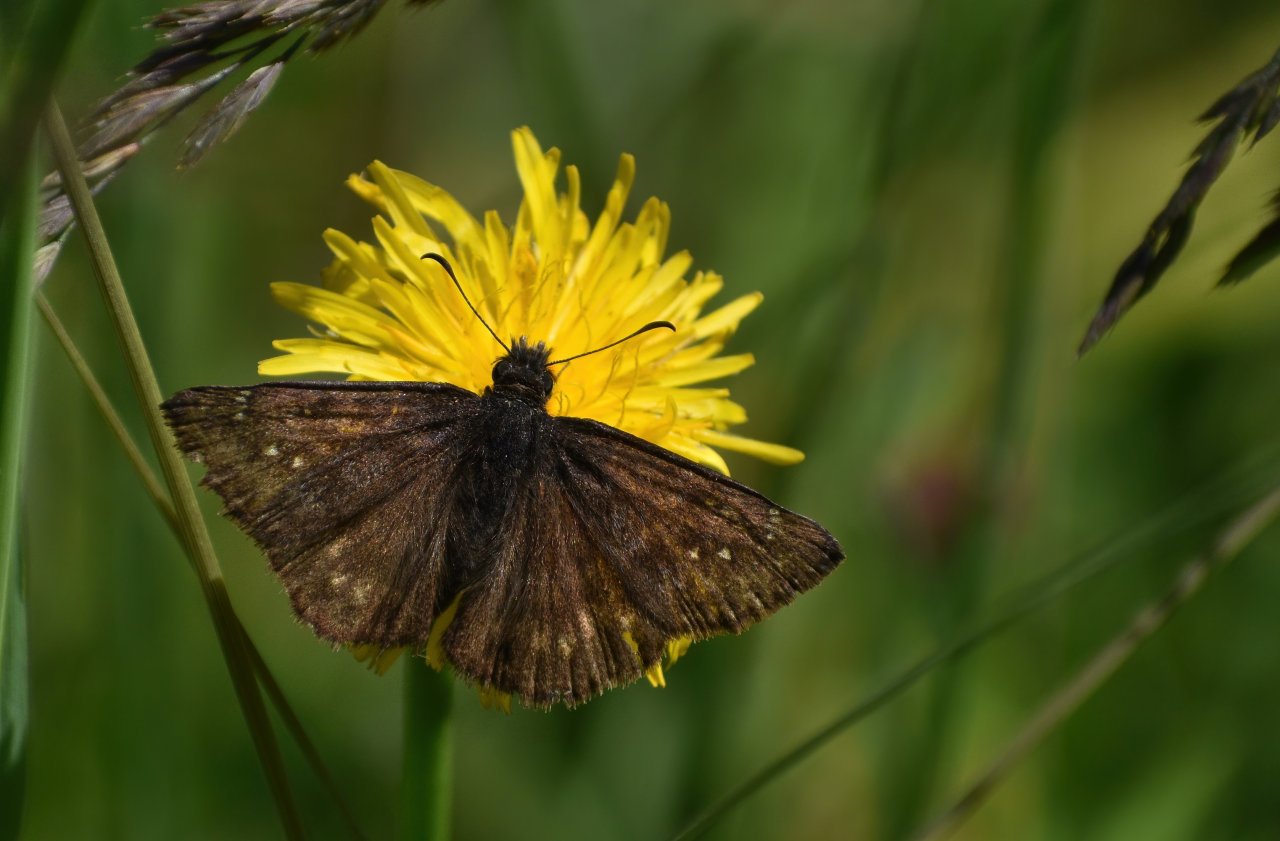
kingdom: Animalia
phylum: Arthropoda
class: Insecta
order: Lepidoptera
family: Hesperiidae
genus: Erynnis
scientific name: Erynnis propertius
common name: Propertius Duskywing
